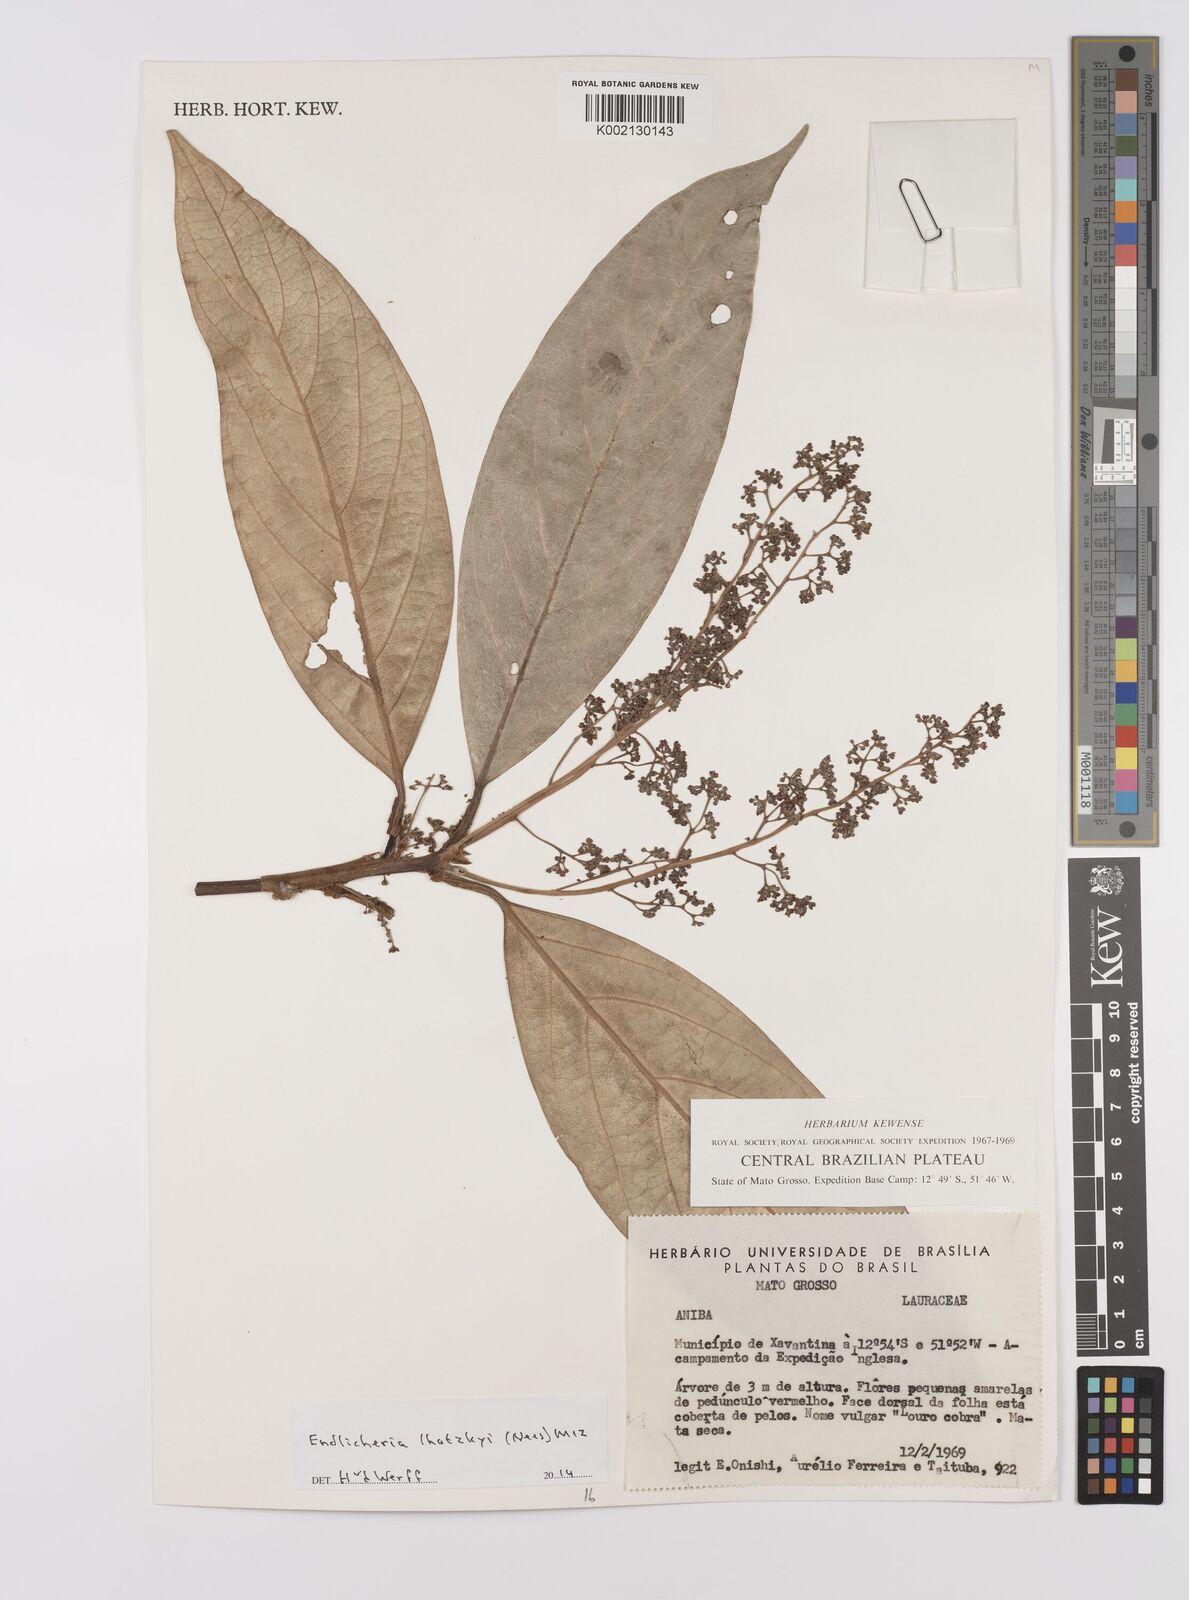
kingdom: Plantae
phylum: Tracheophyta
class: Magnoliopsida
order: Laurales
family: Lauraceae
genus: Endlicheria
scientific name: Endlicheria lhotzkyi
